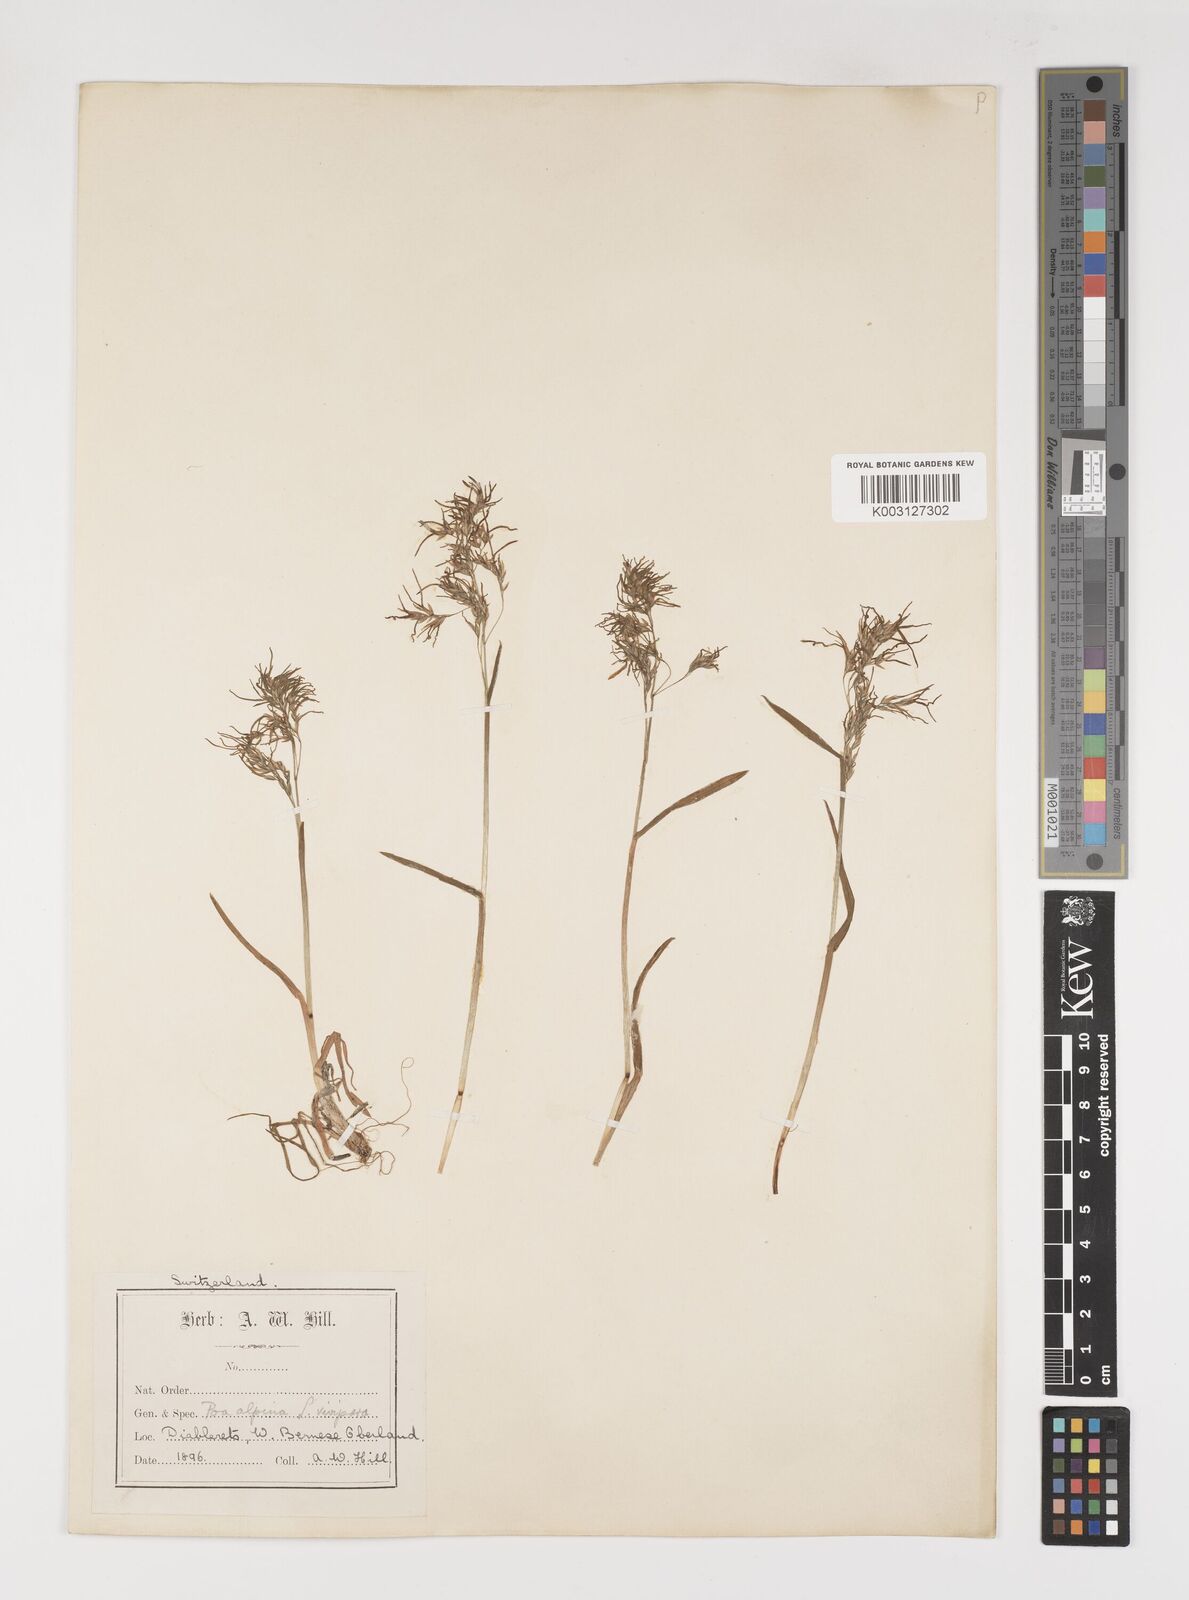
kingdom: Plantae
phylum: Tracheophyta
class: Liliopsida
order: Poales
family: Poaceae
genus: Poa
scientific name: Poa alpina
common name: Alpine bluegrass
